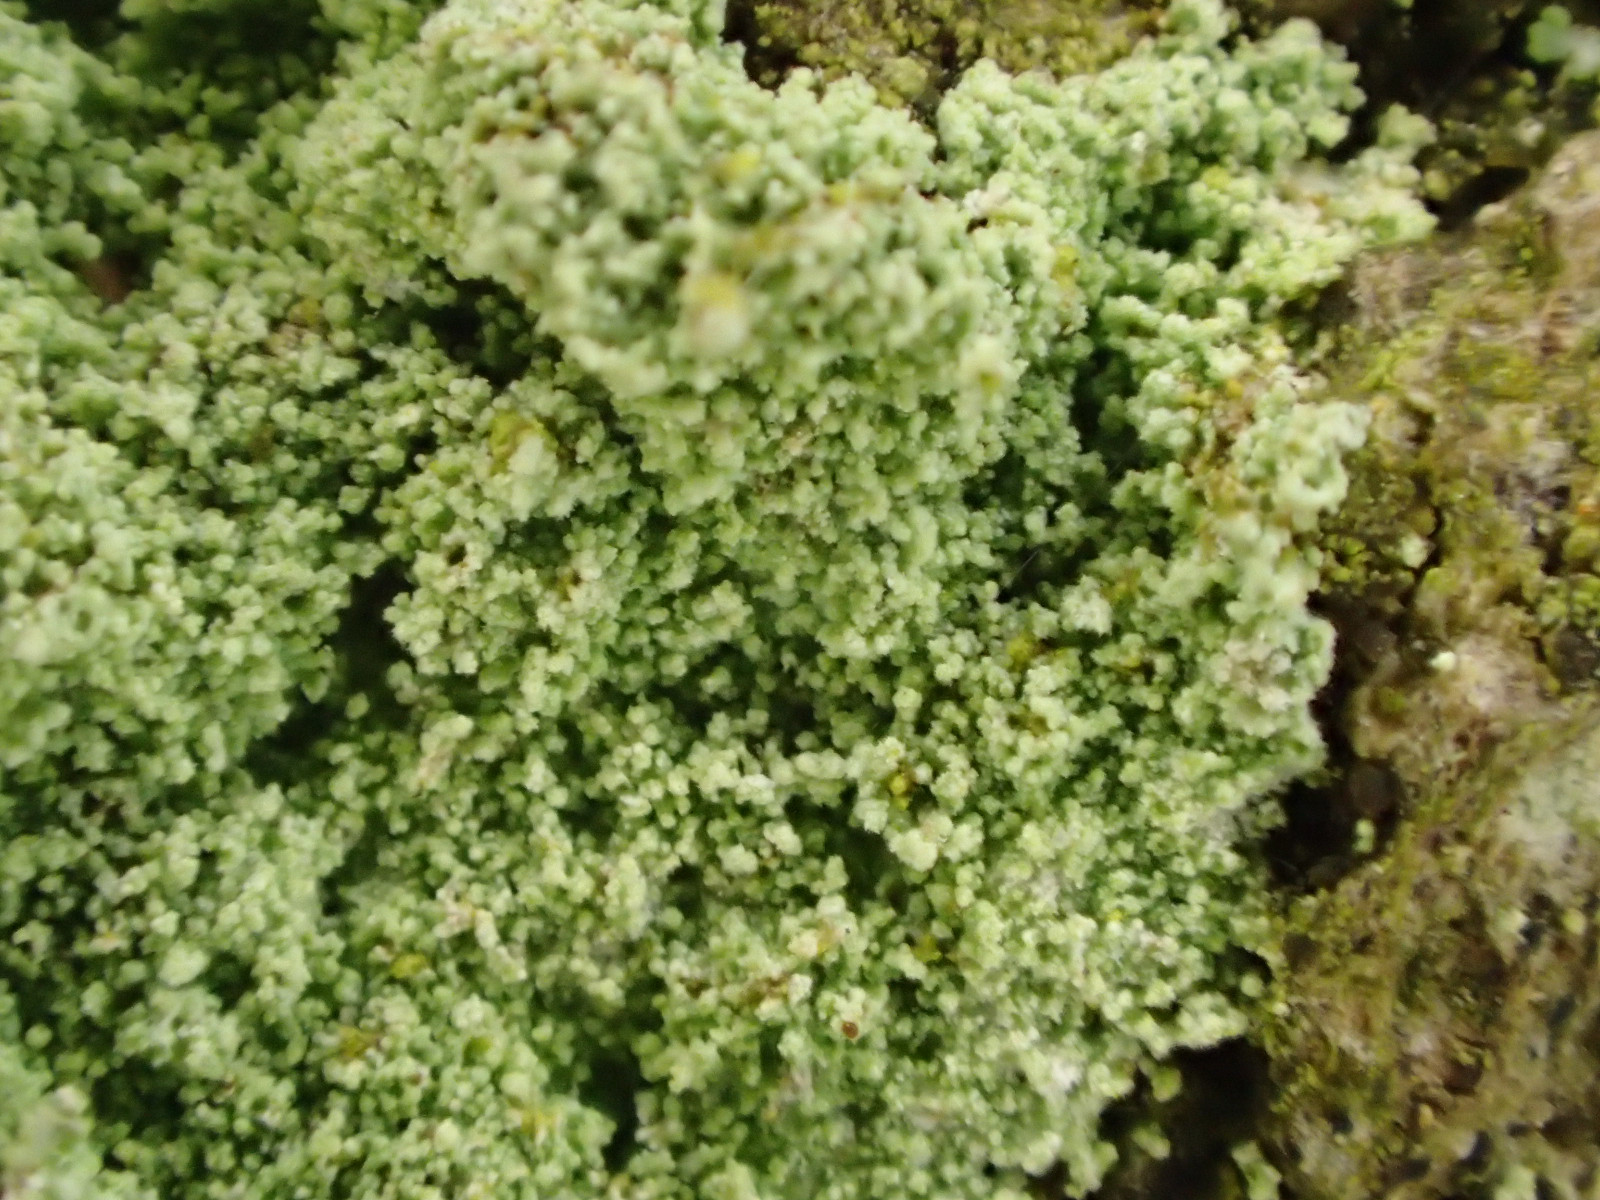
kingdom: Fungi
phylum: Ascomycota
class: Lecanoromycetes
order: Lecanorales
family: Stereocaulaceae
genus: Lepraria
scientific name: Lepraria lobificans
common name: grøn støvlav
